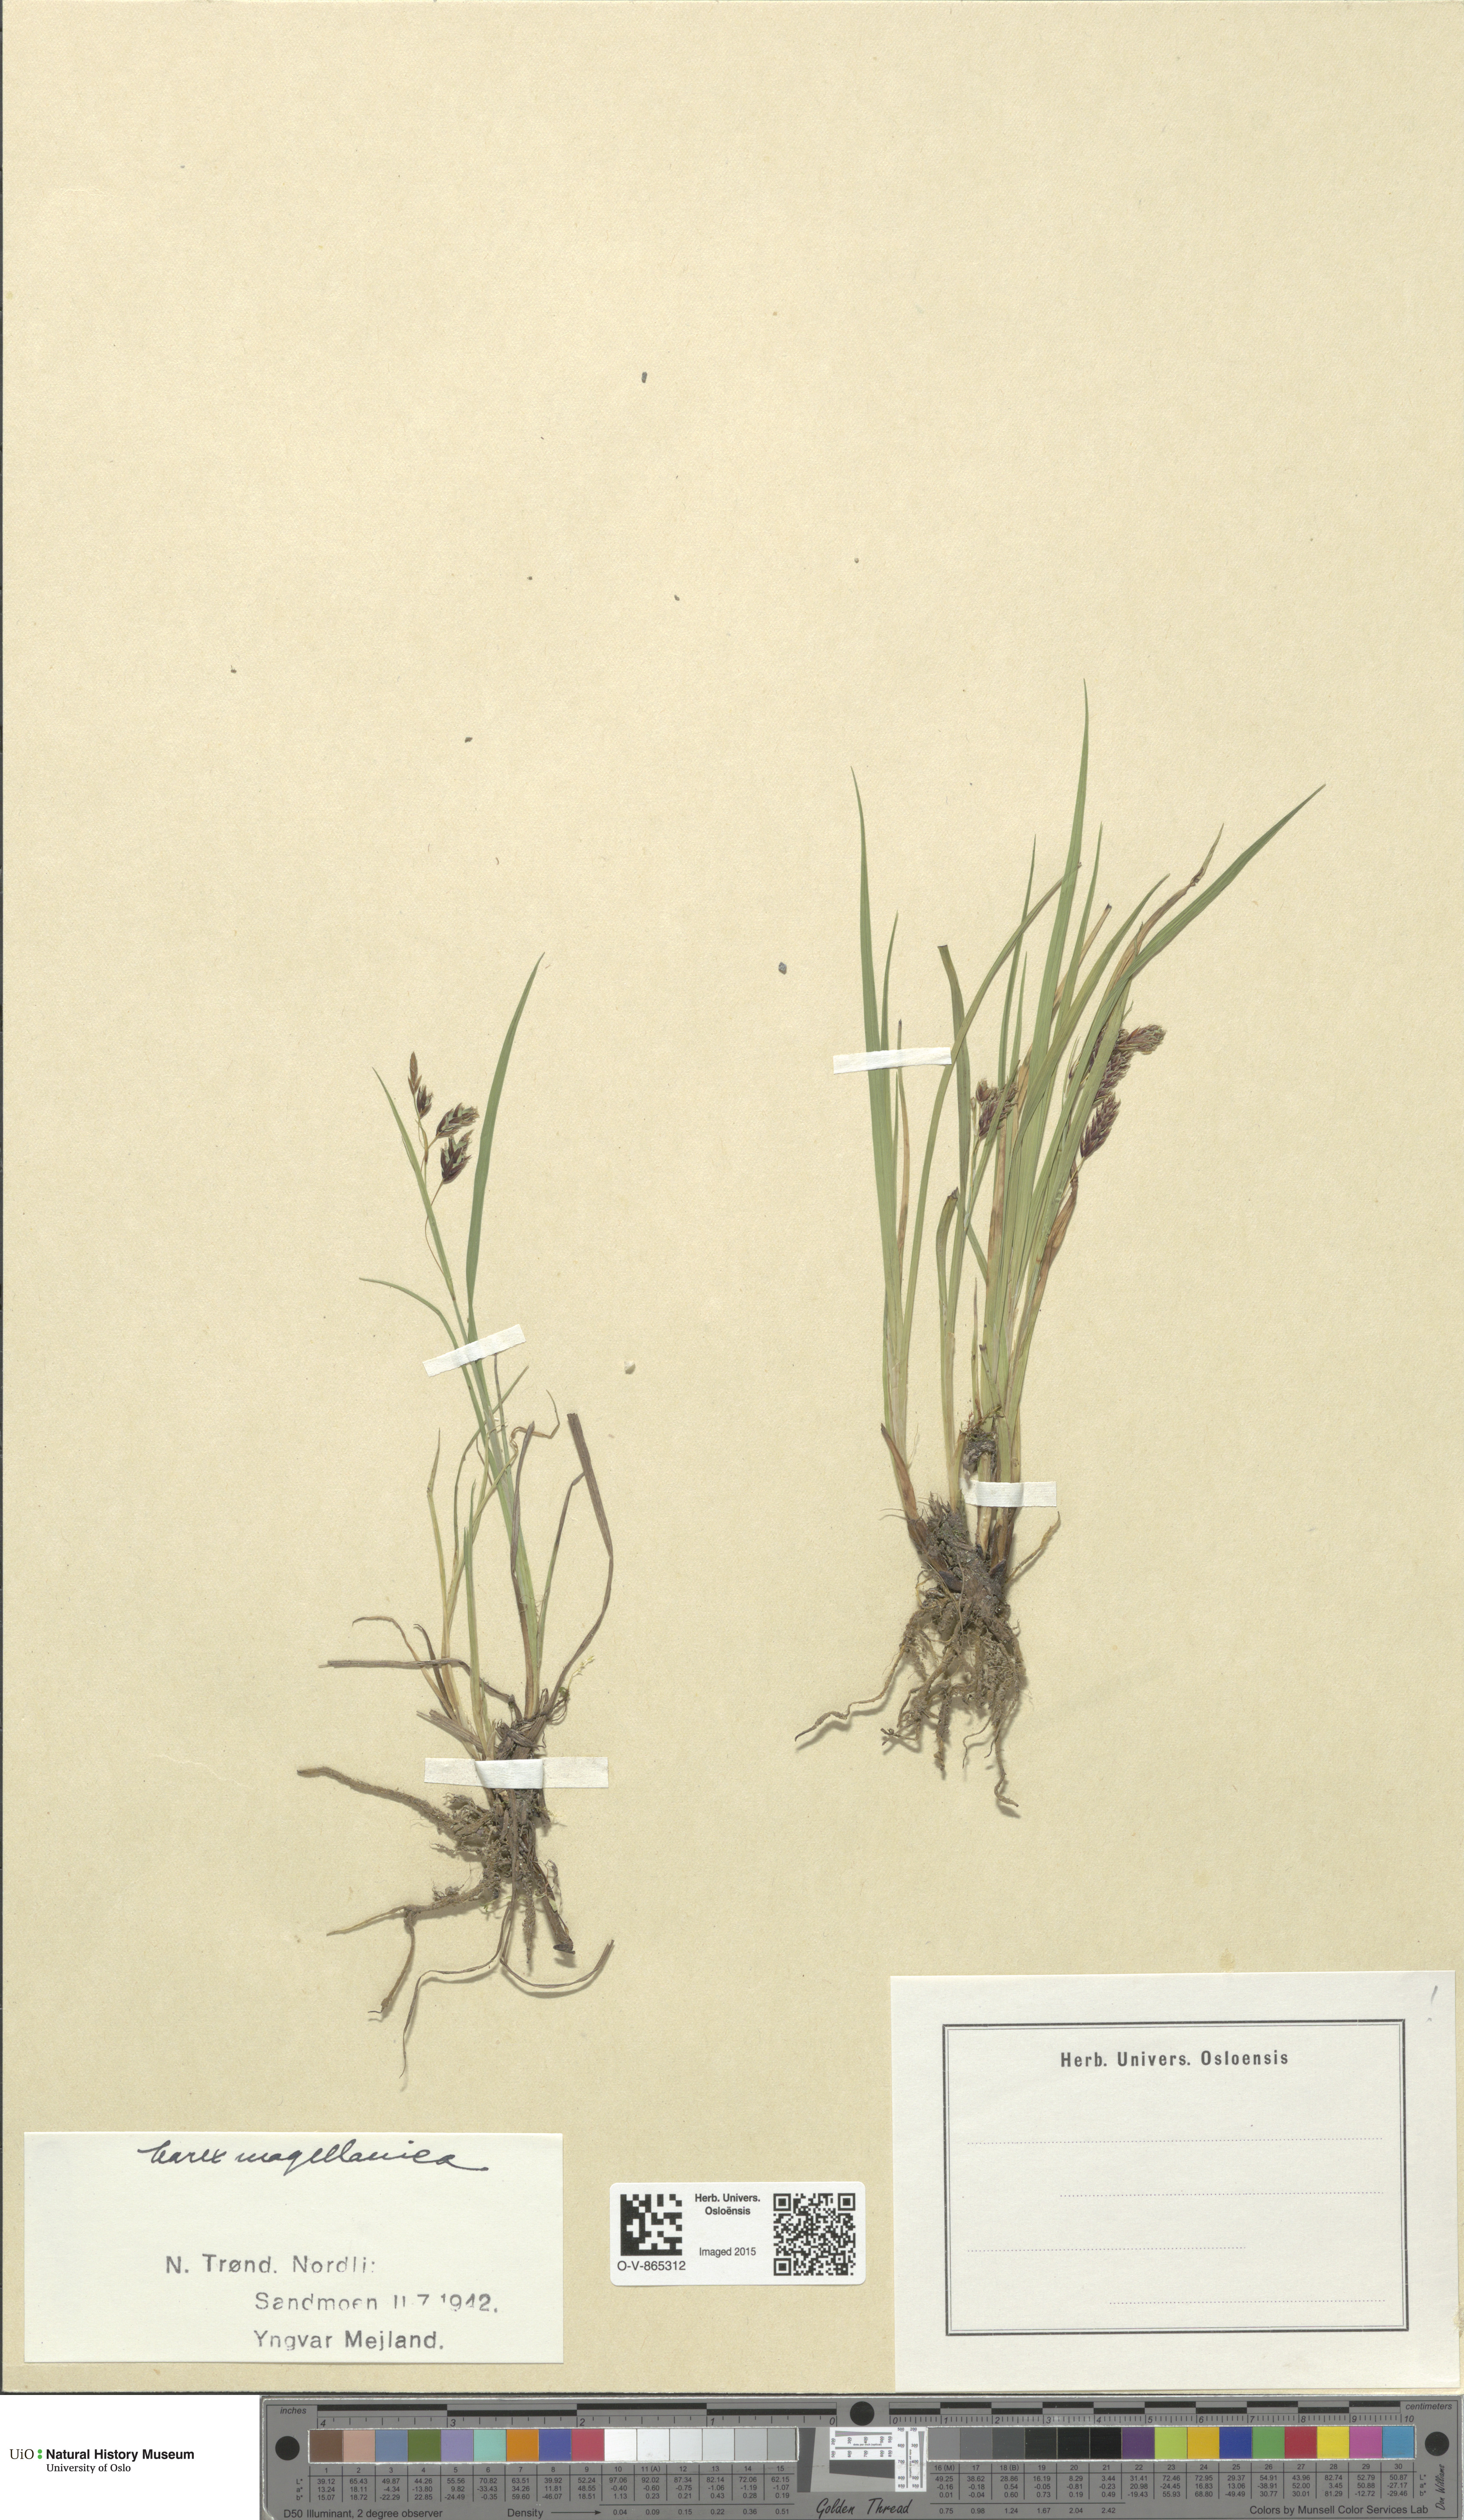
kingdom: Plantae
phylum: Tracheophyta
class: Liliopsida
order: Poales
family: Cyperaceae
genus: Carex
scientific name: Carex magellanica
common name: Bog sedge
